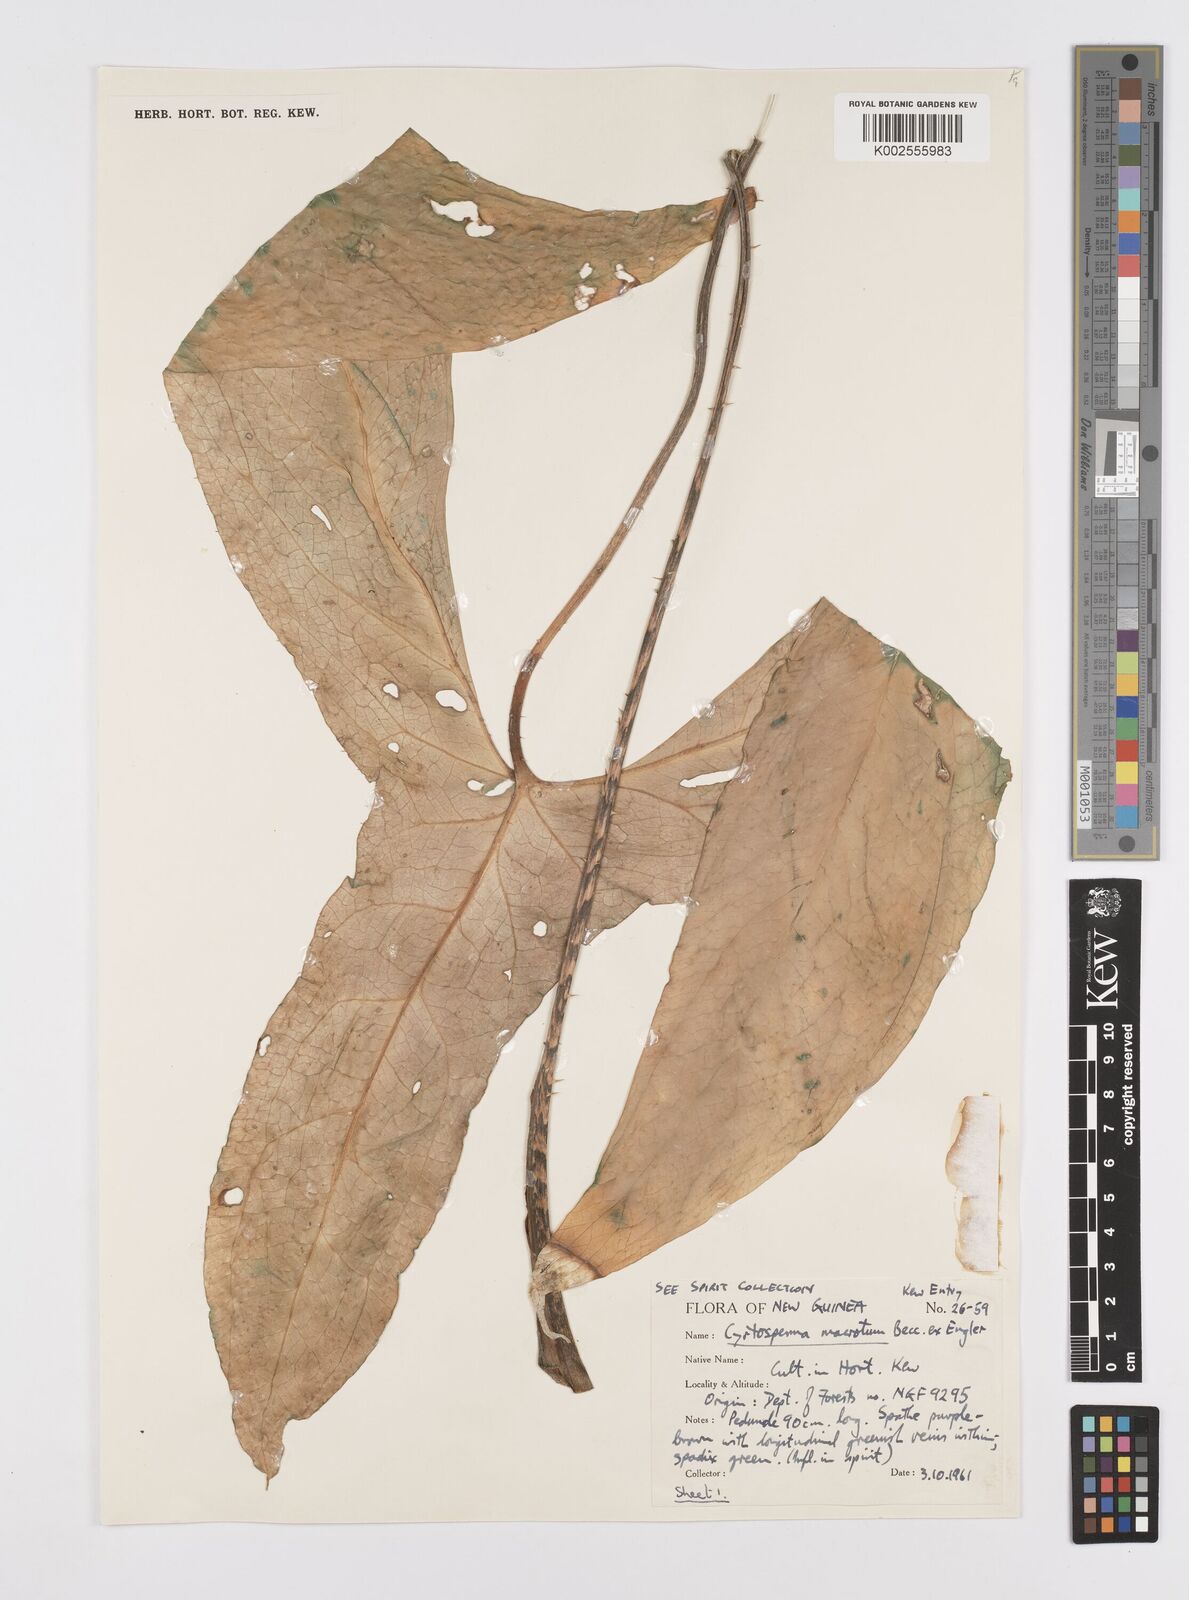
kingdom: Plantae
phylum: Tracheophyta
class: Liliopsida
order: Alismatales
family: Araceae
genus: Cyrtosperma
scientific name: Cyrtosperma macrotum
